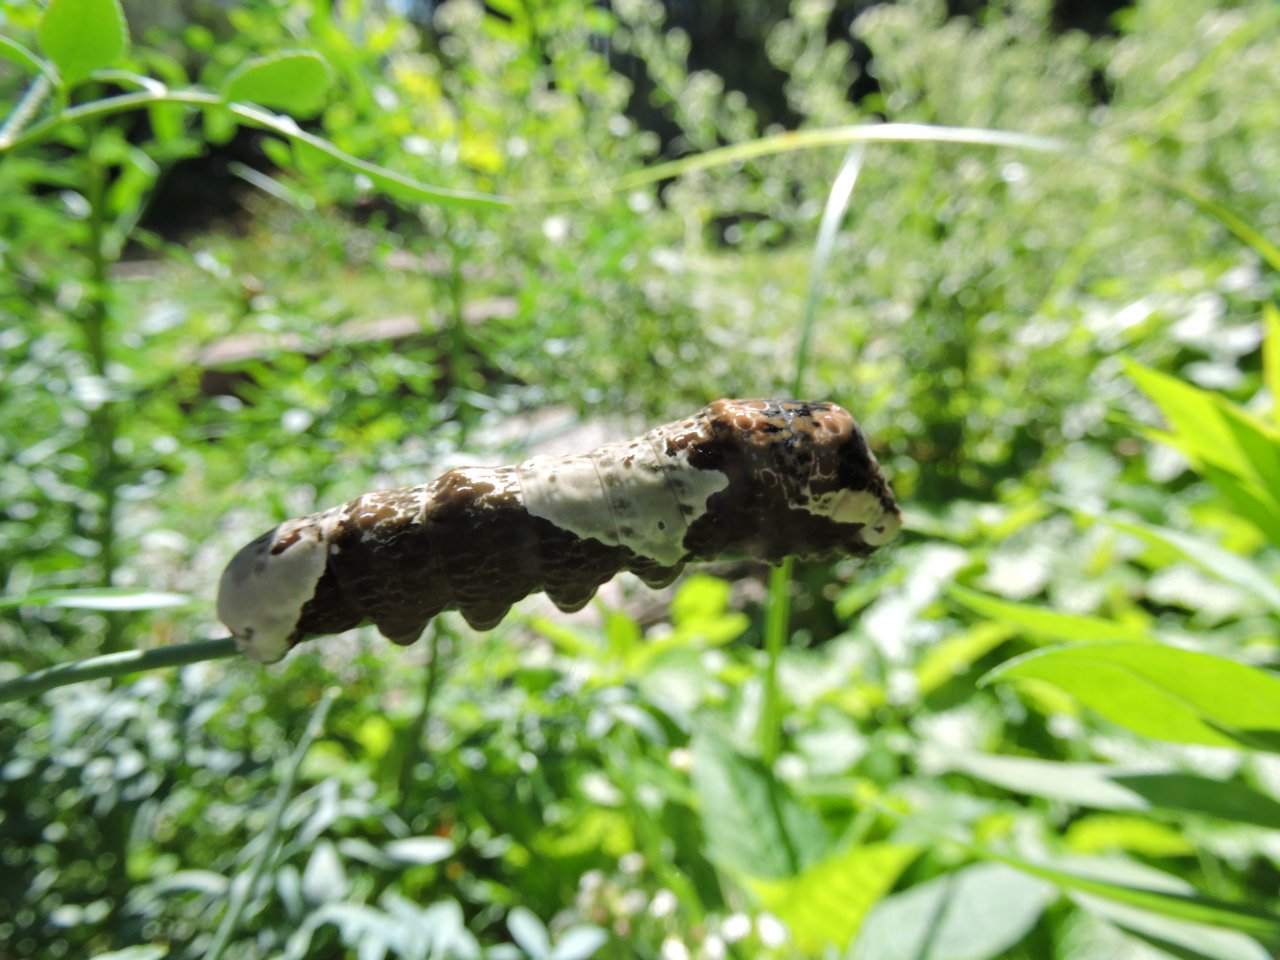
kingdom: Animalia
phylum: Arthropoda
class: Insecta
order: Lepidoptera
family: Papilionidae
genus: Papilio
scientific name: Papilio cresphontes
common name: Eastern Giant Swallowtail
